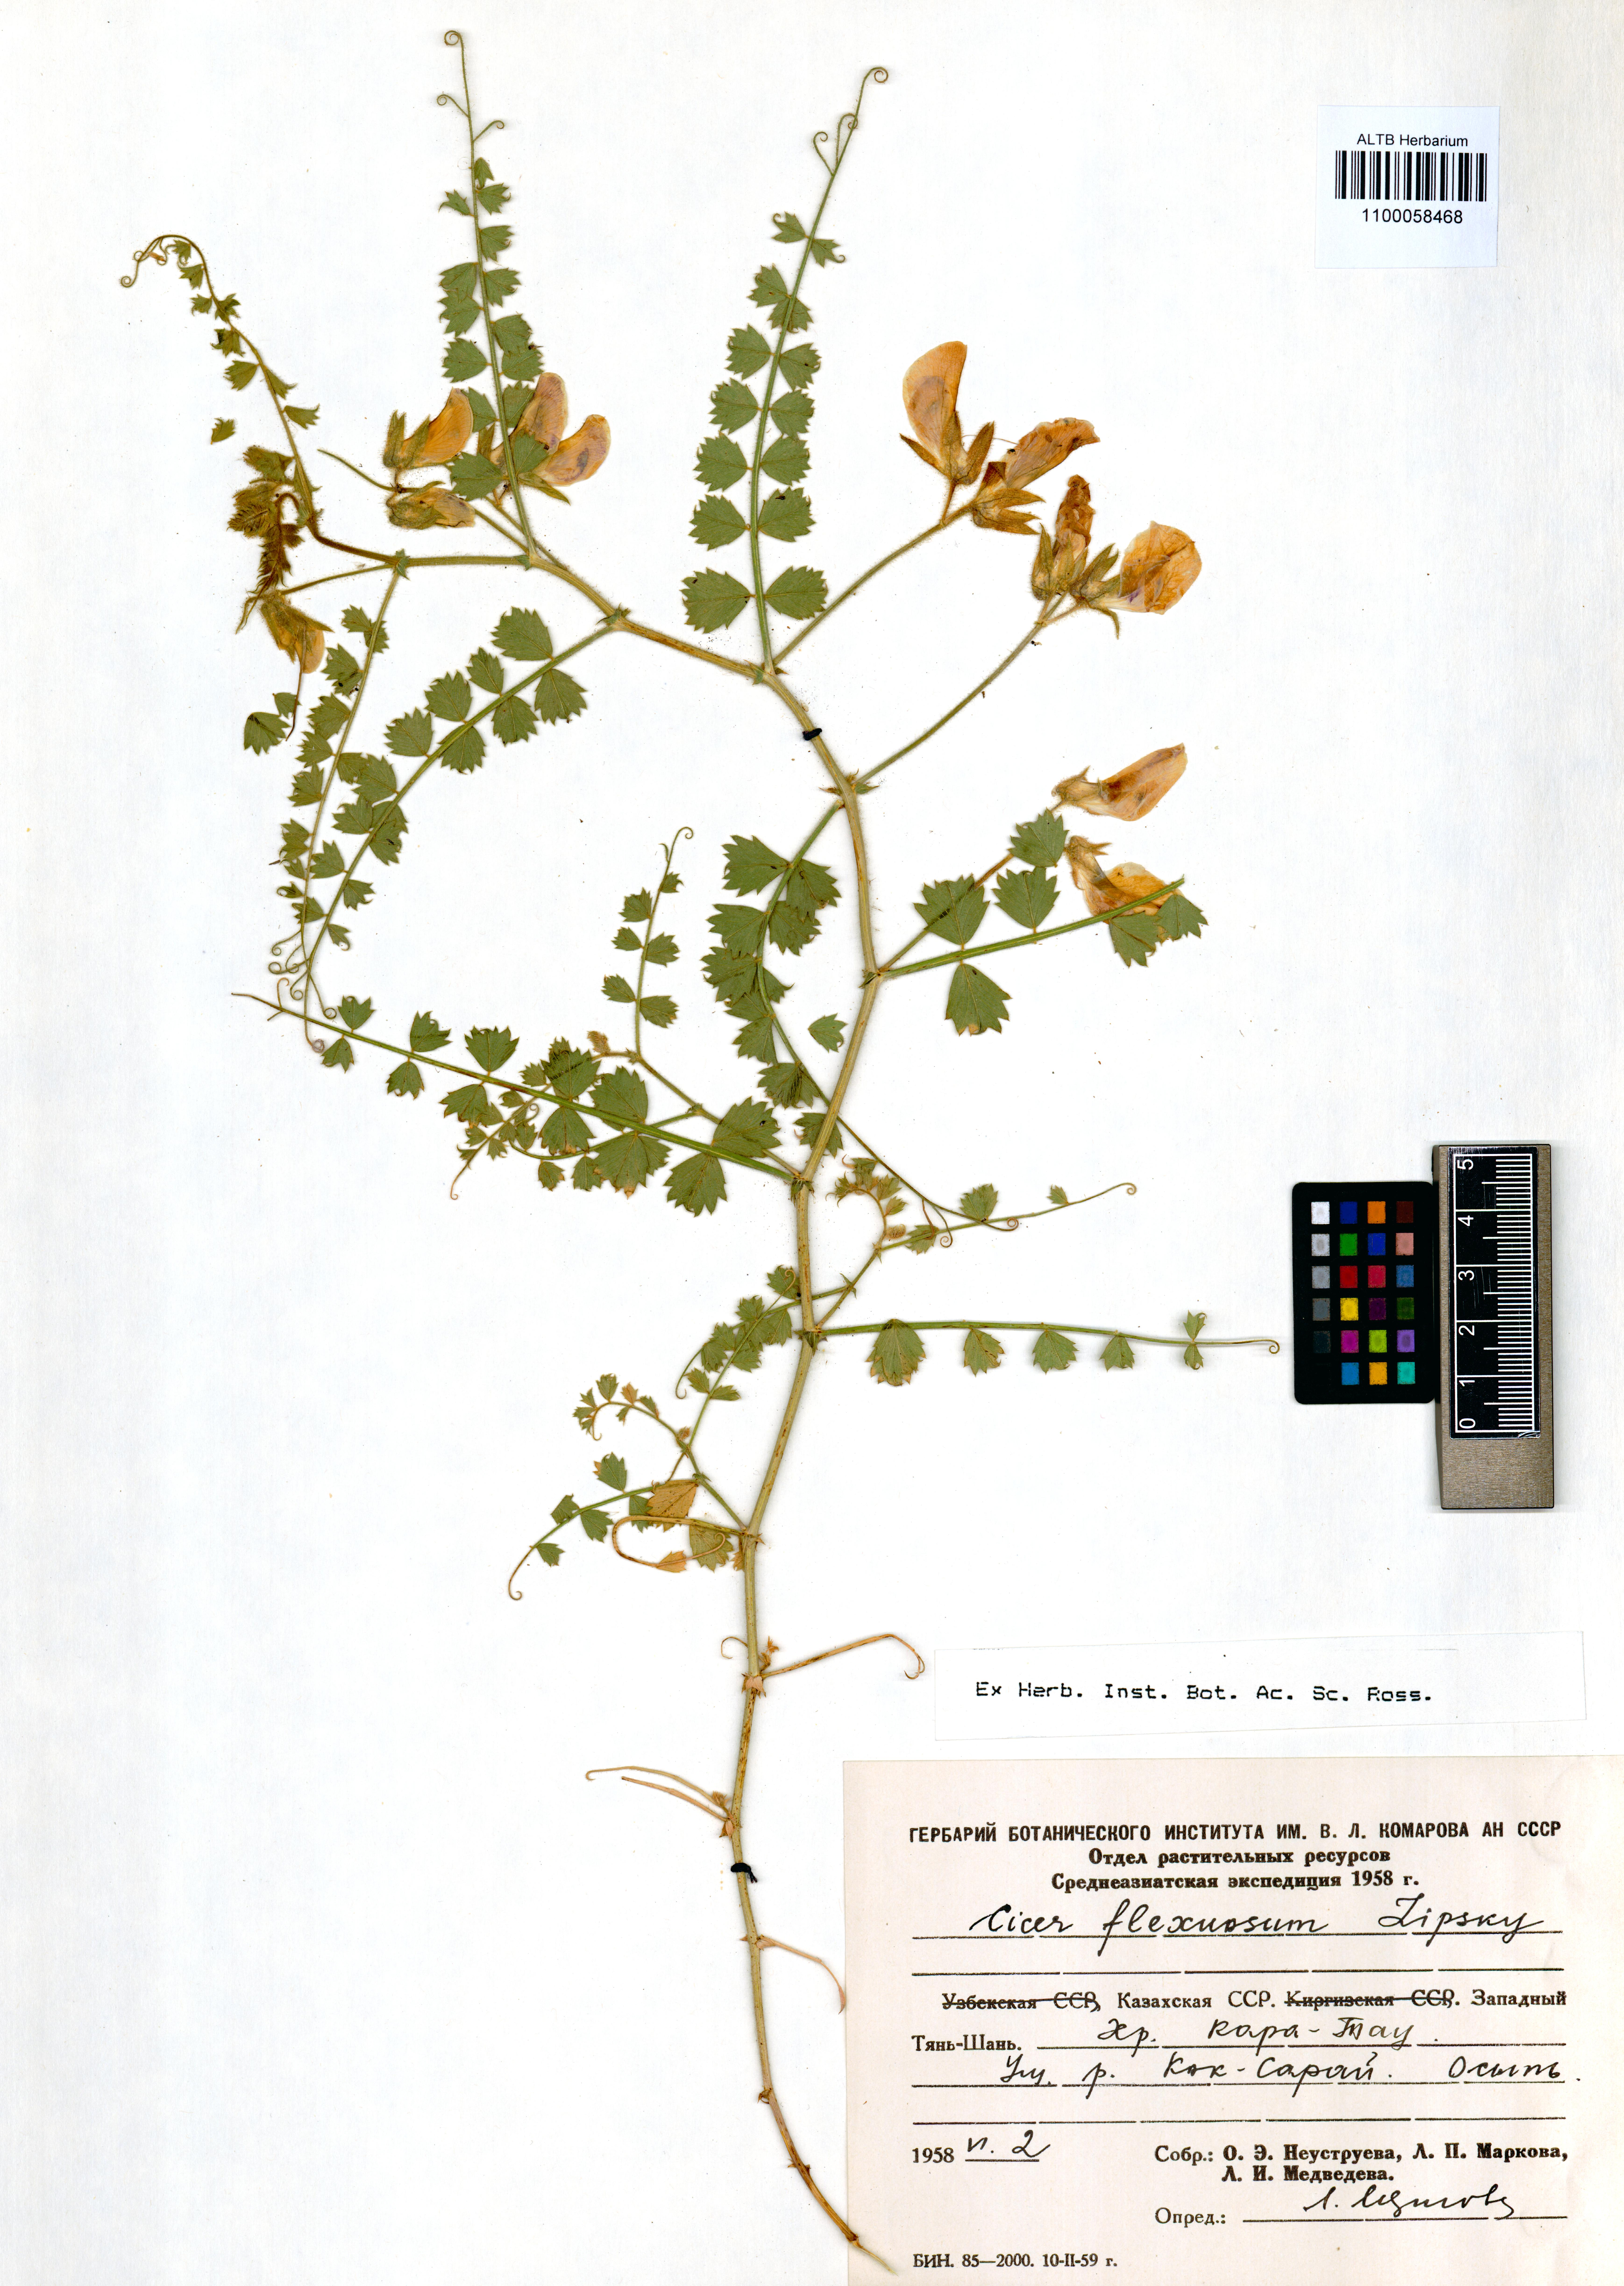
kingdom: Plantae
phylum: Tracheophyta
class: Magnoliopsida
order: Fabales
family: Fabaceae
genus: Cicer
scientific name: Cicer flexuosum
